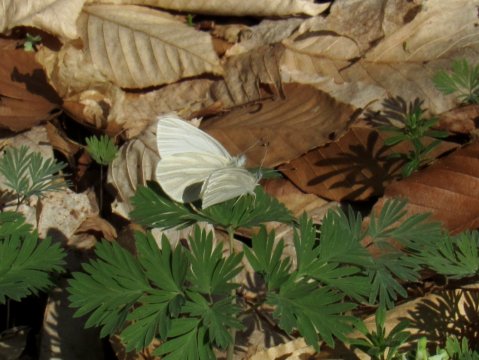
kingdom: Animalia
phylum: Arthropoda
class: Insecta
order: Lepidoptera
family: Pieridae
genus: Pieris
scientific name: Pieris virginiensis
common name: West Virginia White
